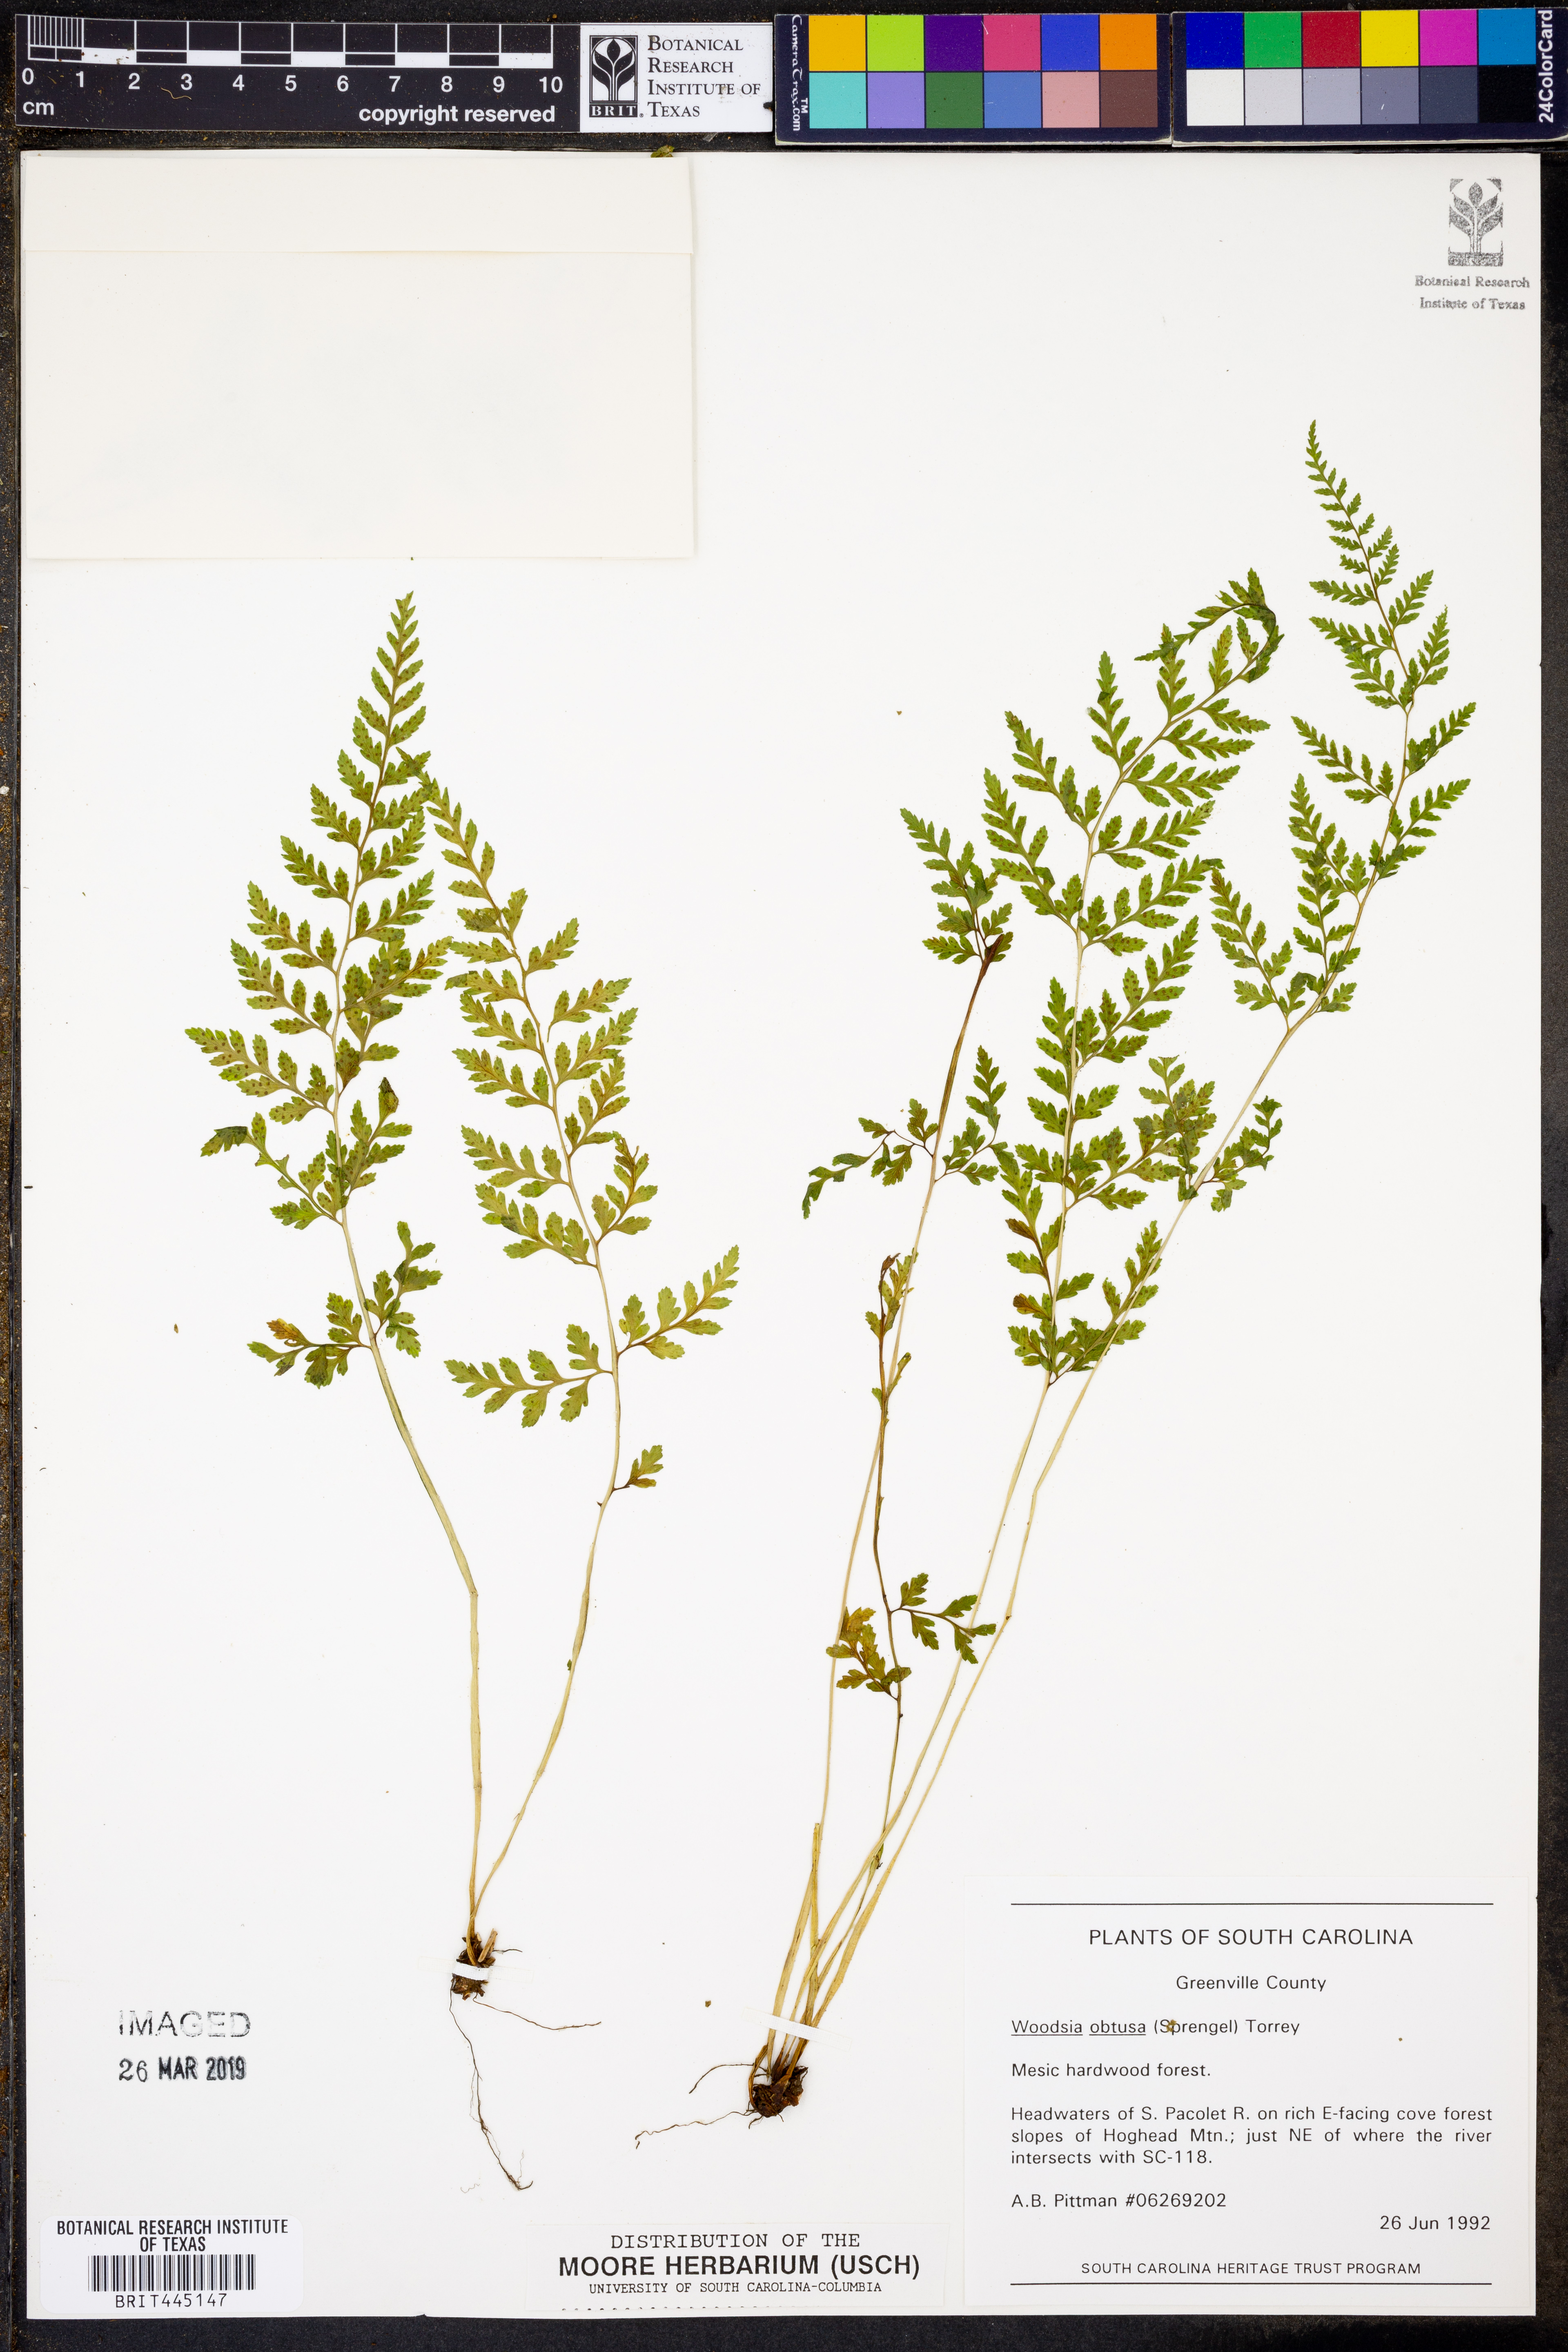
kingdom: Plantae
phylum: Tracheophyta
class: Polypodiopsida
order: Polypodiales
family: Woodsiaceae
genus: Physematium
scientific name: Physematium obtusum
